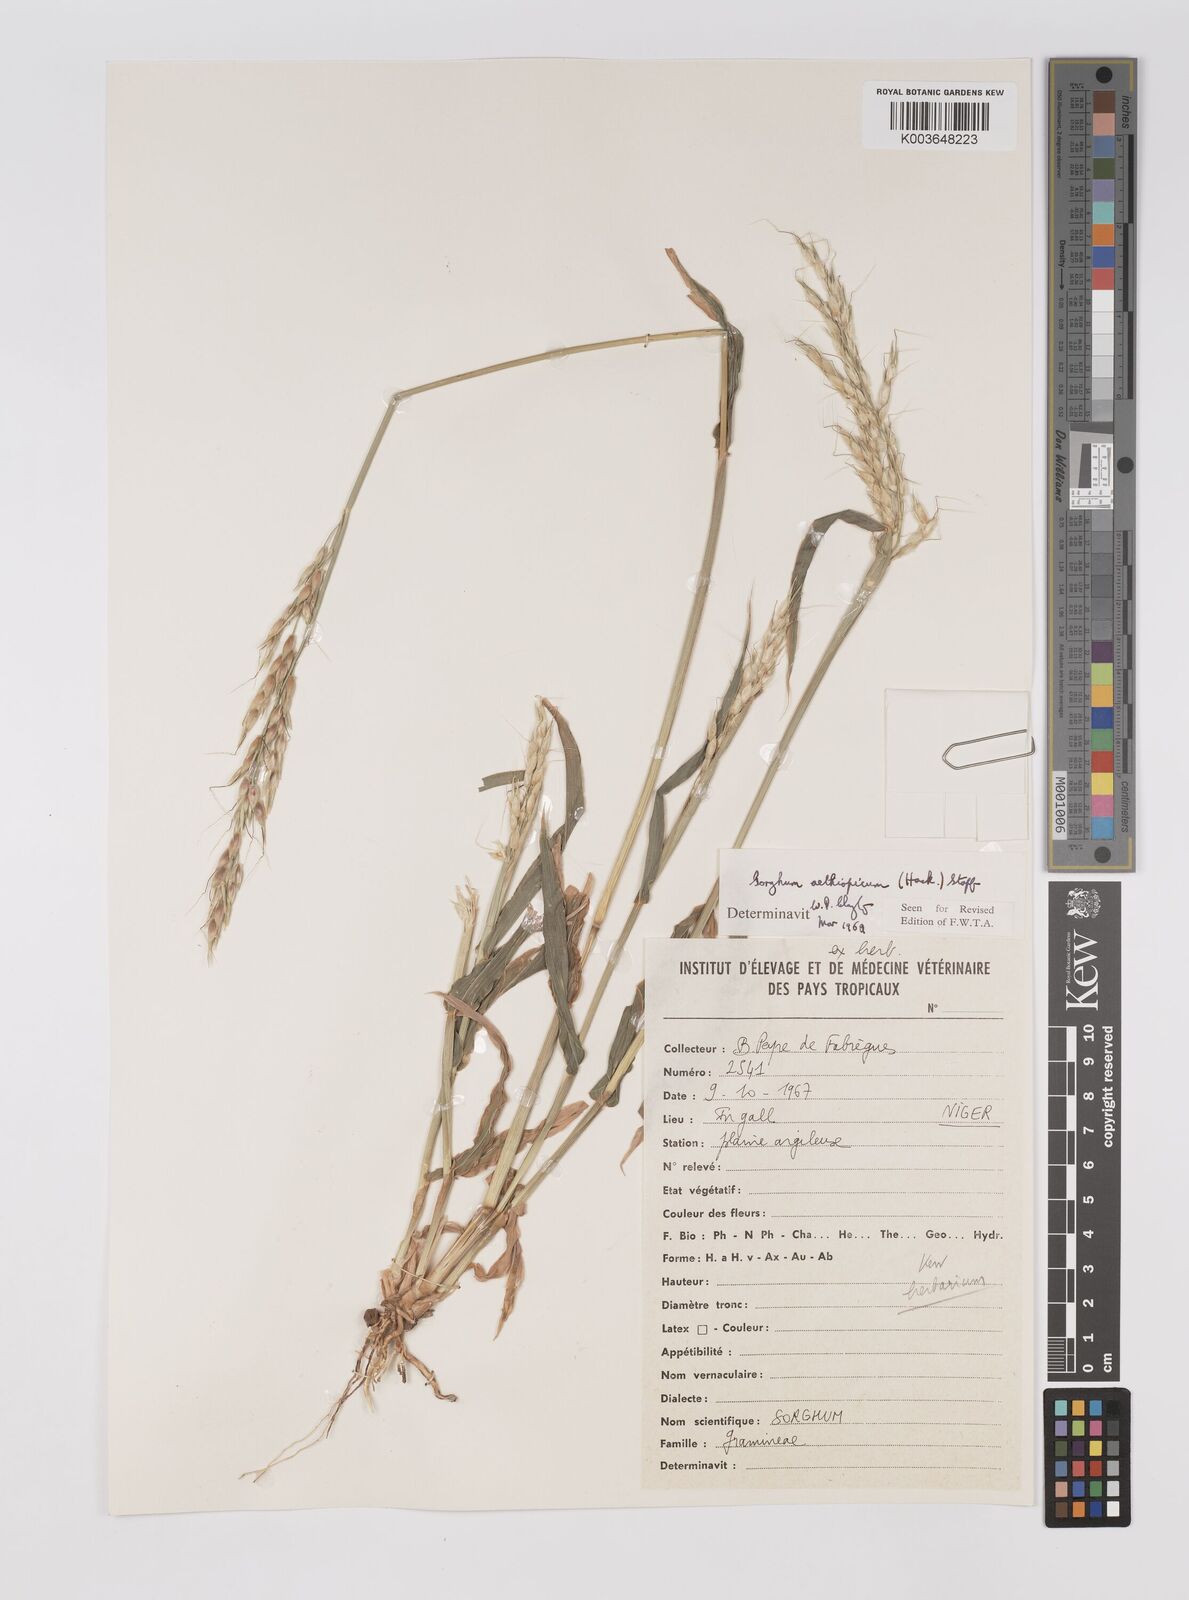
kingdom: Plantae
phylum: Tracheophyta
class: Liliopsida
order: Poales
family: Poaceae
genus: Sorghum
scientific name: Sorghum arundinaceum
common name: Sorghum
